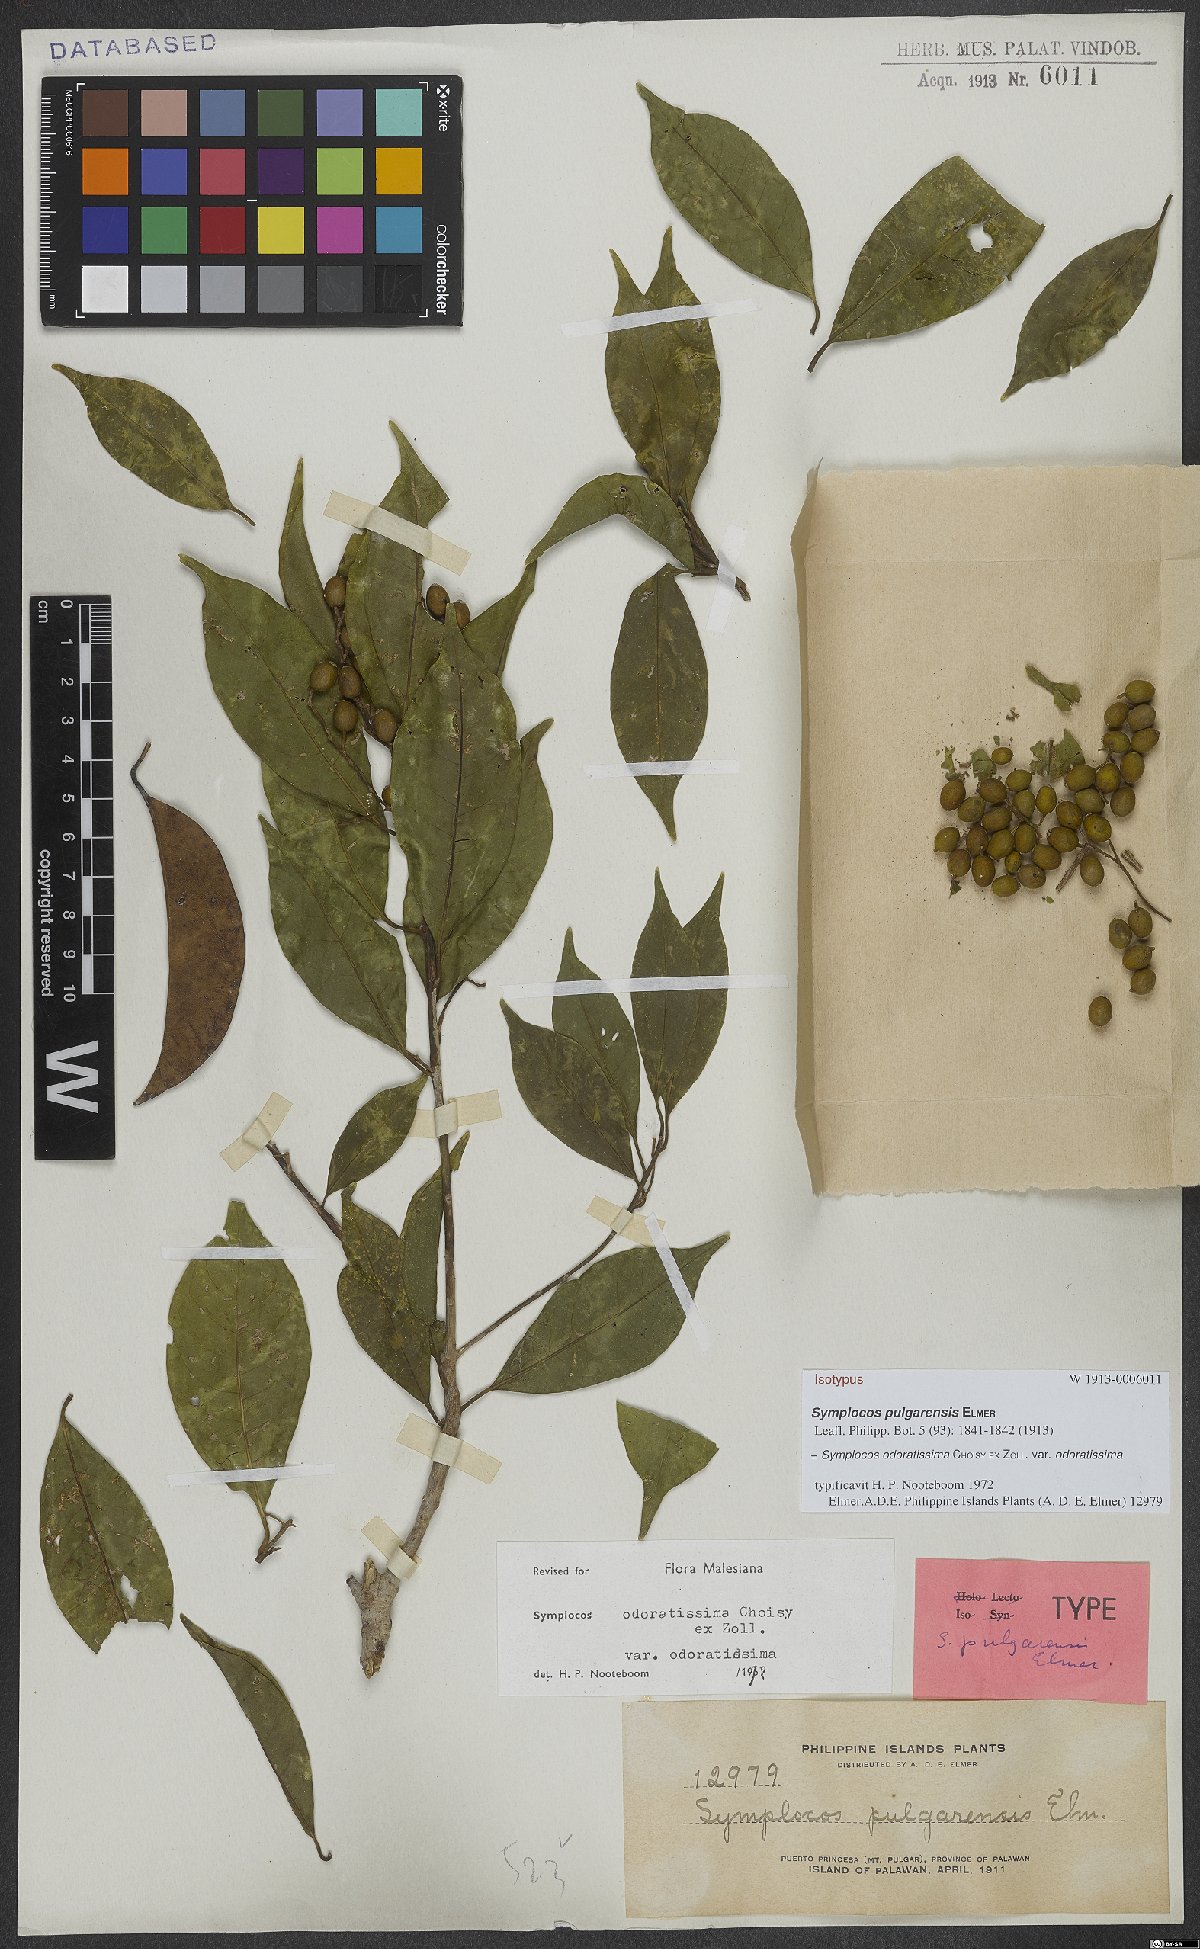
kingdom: Plantae
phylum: Tracheophyta
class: Magnoliopsida
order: Ericales
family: Symplocaceae
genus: Symplocos
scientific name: Symplocos odoratissima
